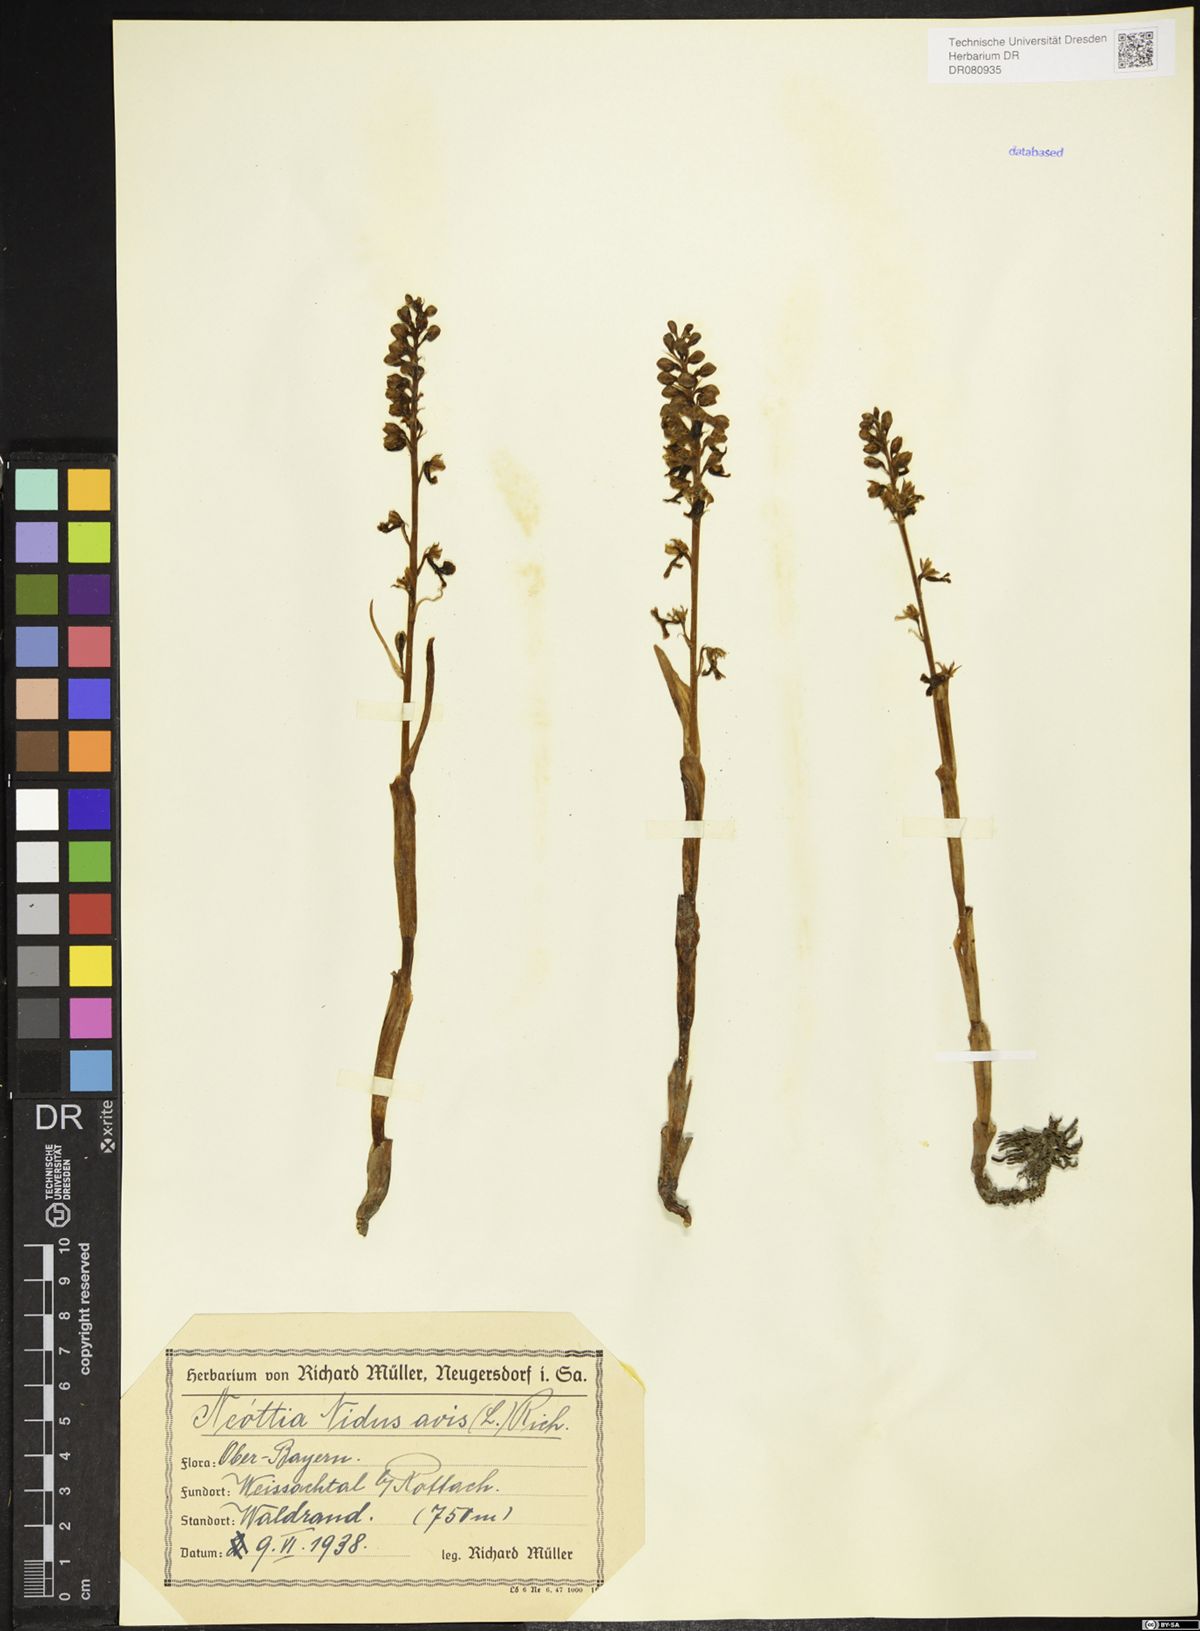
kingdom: Plantae
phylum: Tracheophyta
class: Liliopsida
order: Asparagales
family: Orchidaceae
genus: Neottia
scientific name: Neottia nidus-avis
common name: Bird's-nest orchid
